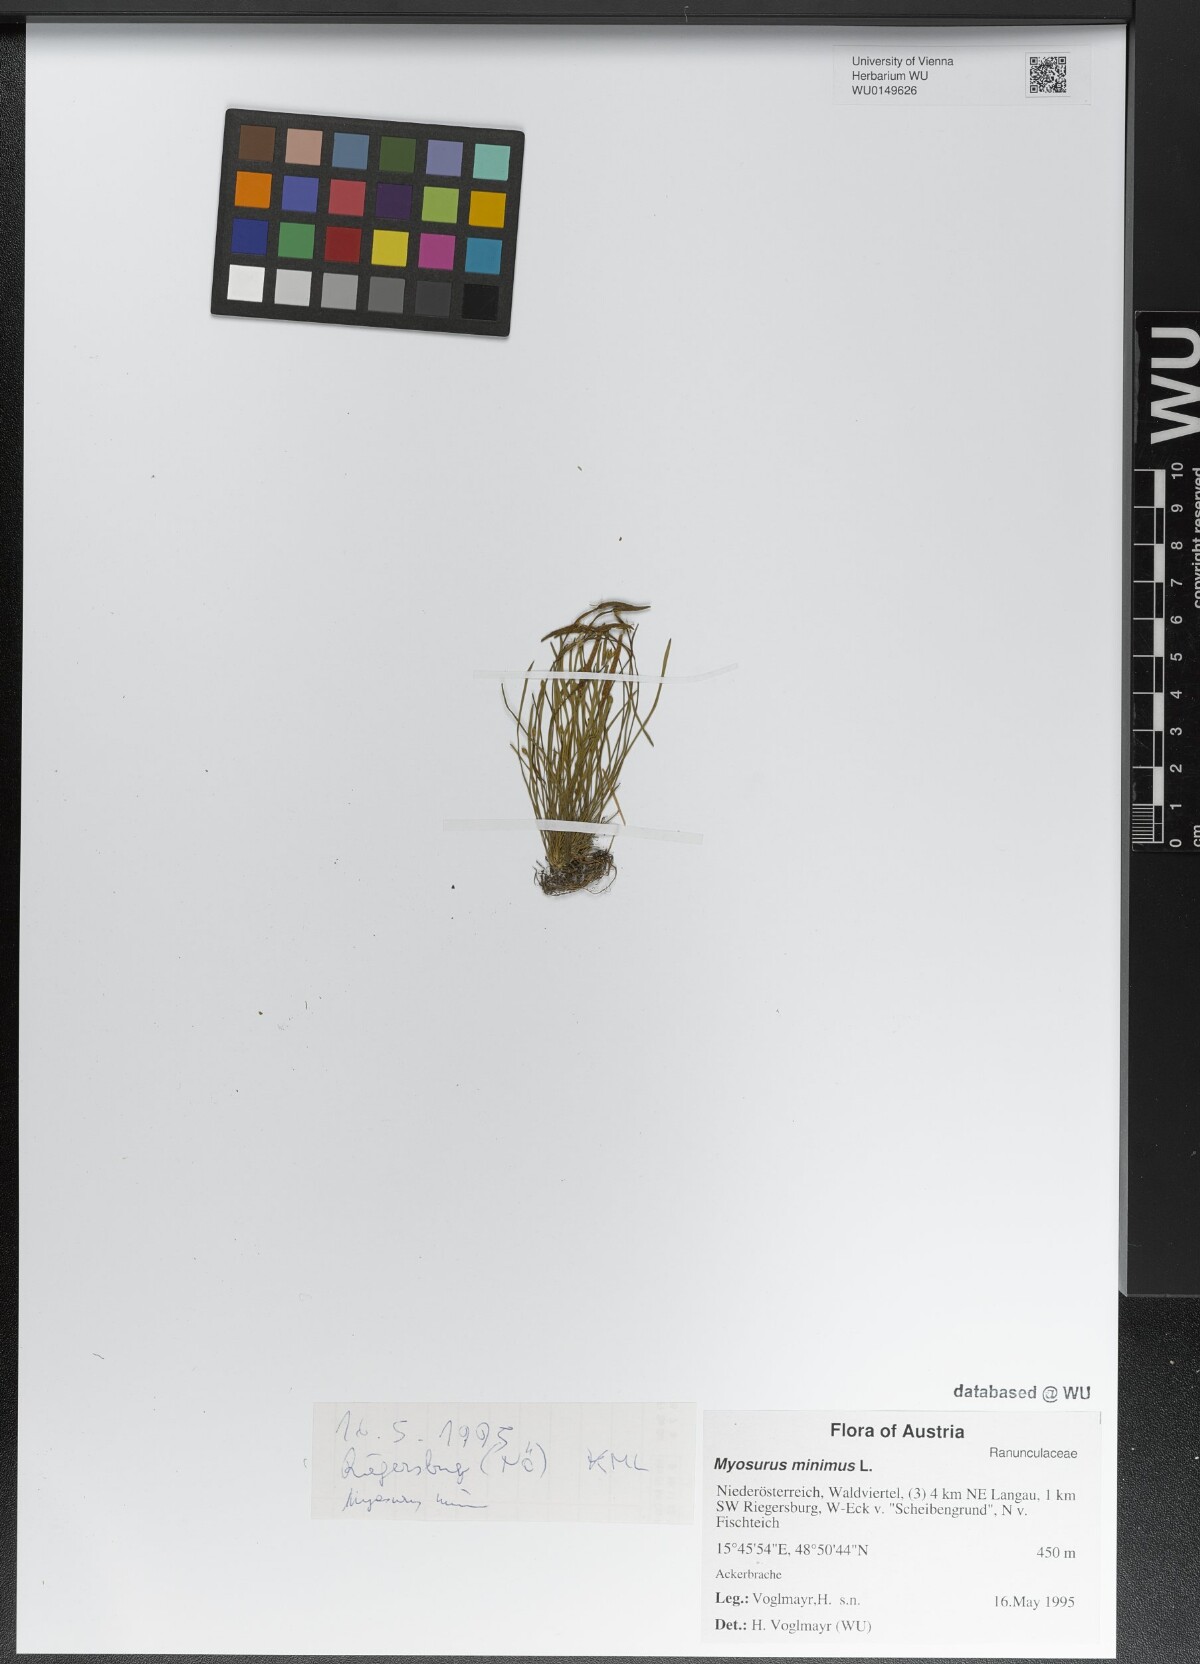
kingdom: Plantae
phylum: Tracheophyta
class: Magnoliopsida
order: Ranunculales
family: Ranunculaceae
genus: Myosurus
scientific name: Myosurus minimus
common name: Mousetail
